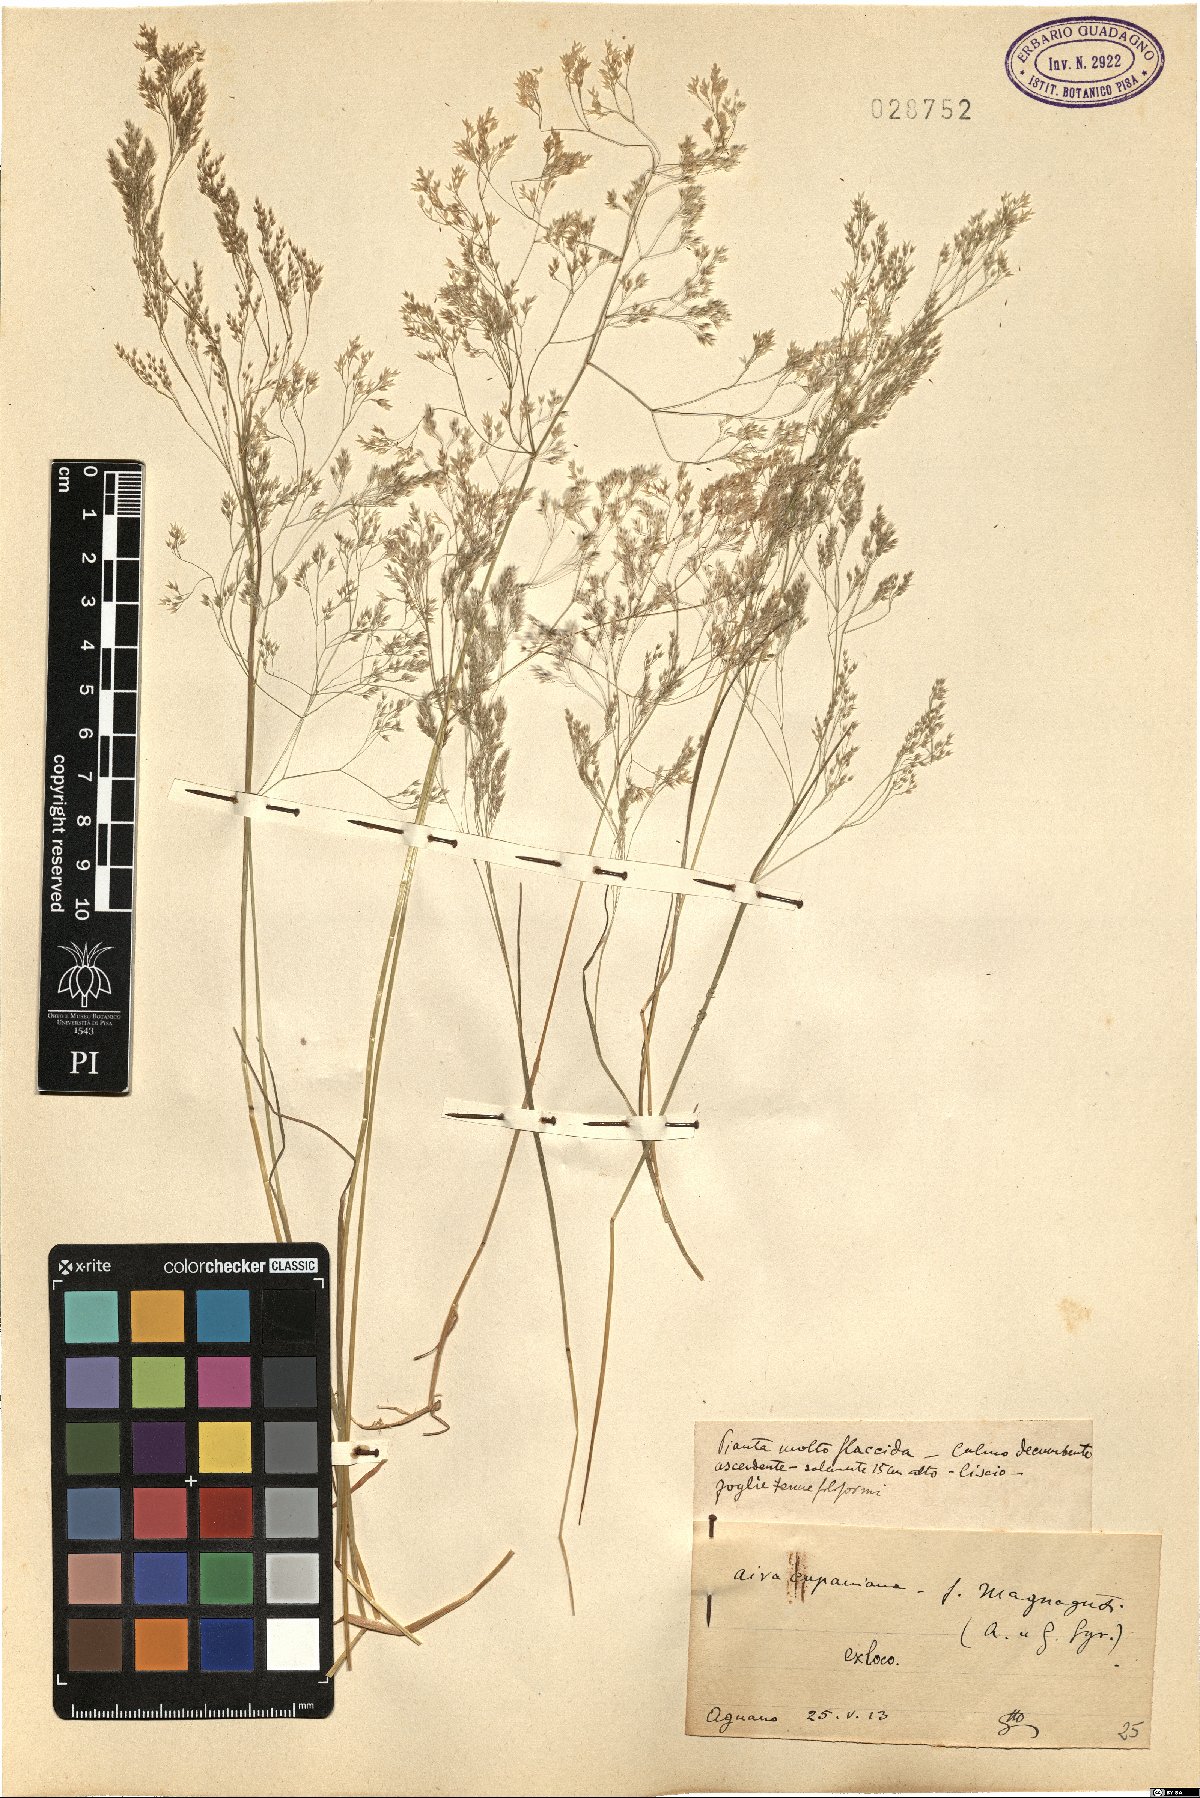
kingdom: Plantae
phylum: Tracheophyta
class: Liliopsida
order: Poales
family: Poaceae
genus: Aira
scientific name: Aira cupaniana
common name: Silver hairgrass
